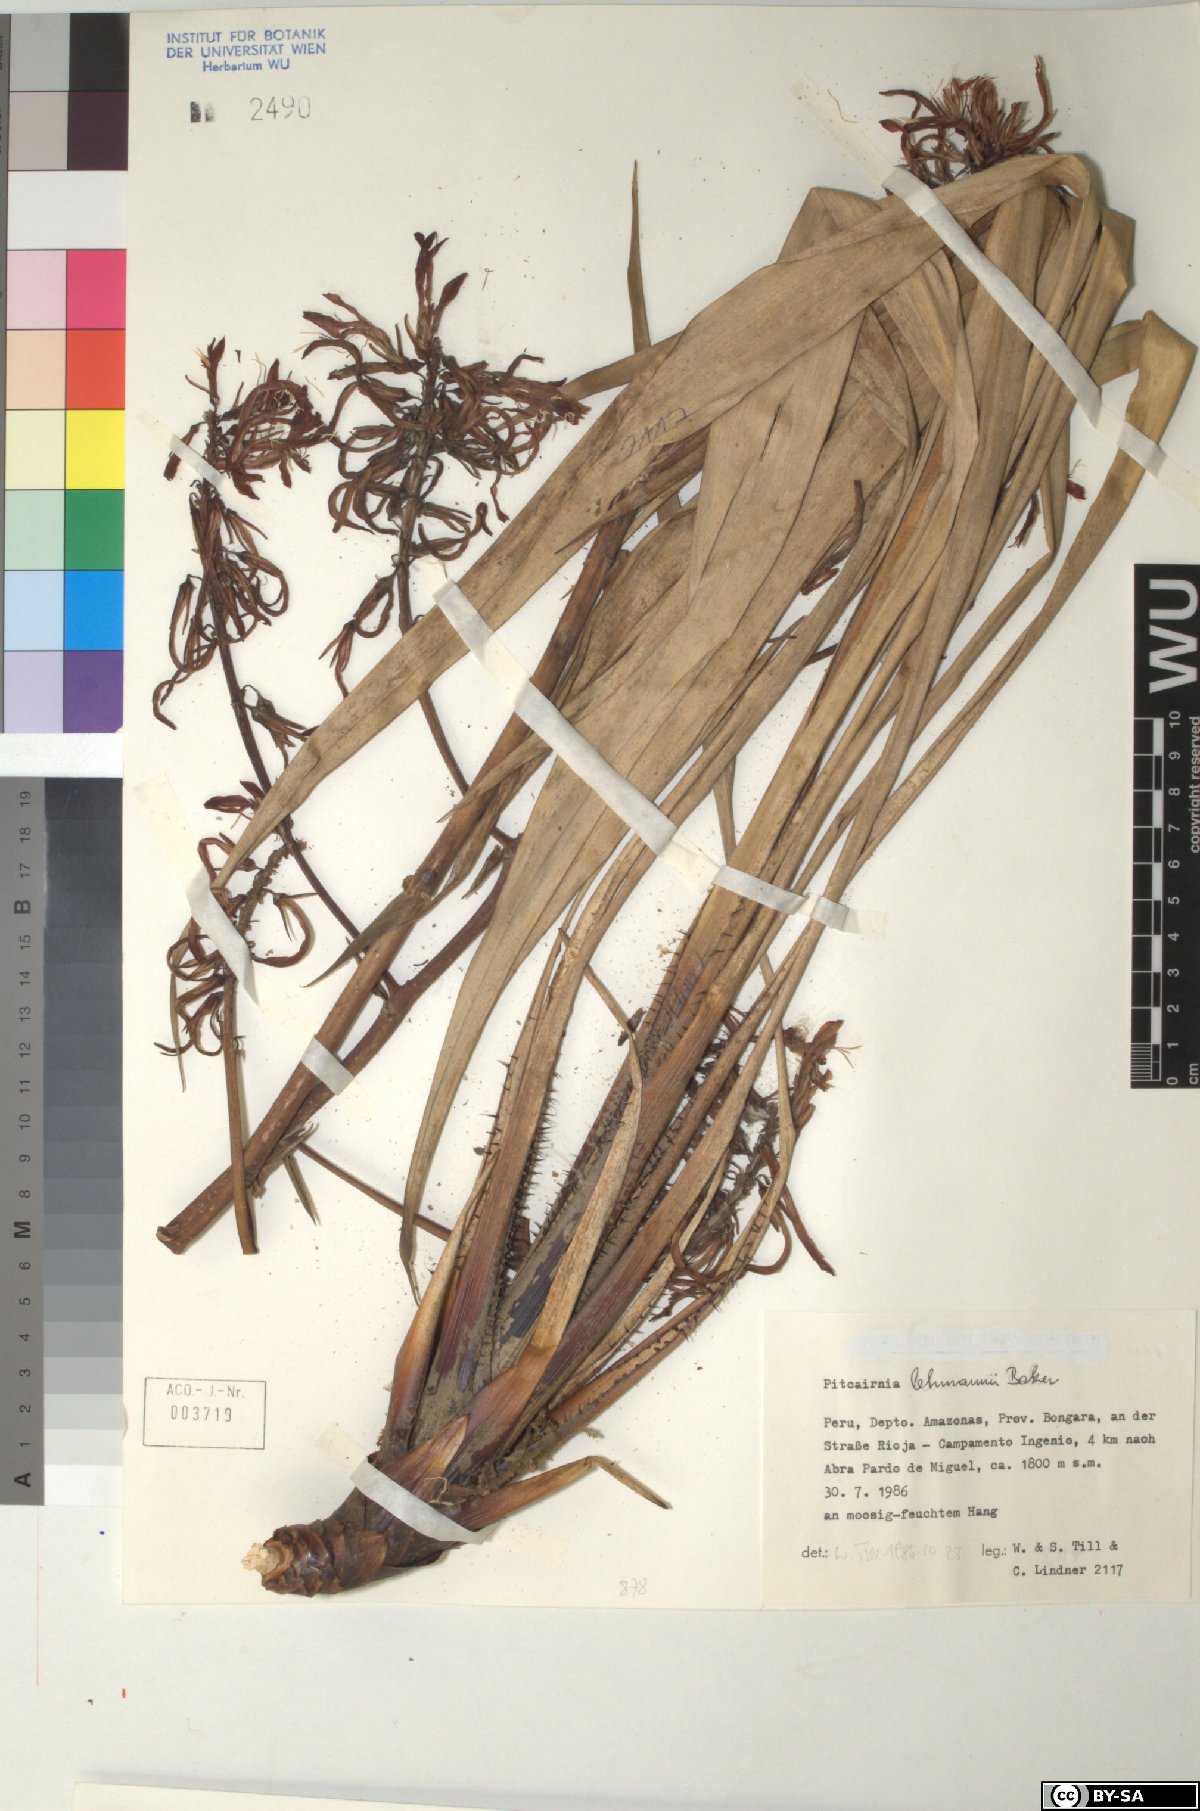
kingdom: Plantae
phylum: Tracheophyta
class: Liliopsida
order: Poales
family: Bromeliaceae
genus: Pitcairnia
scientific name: Pitcairnia lehmannii
